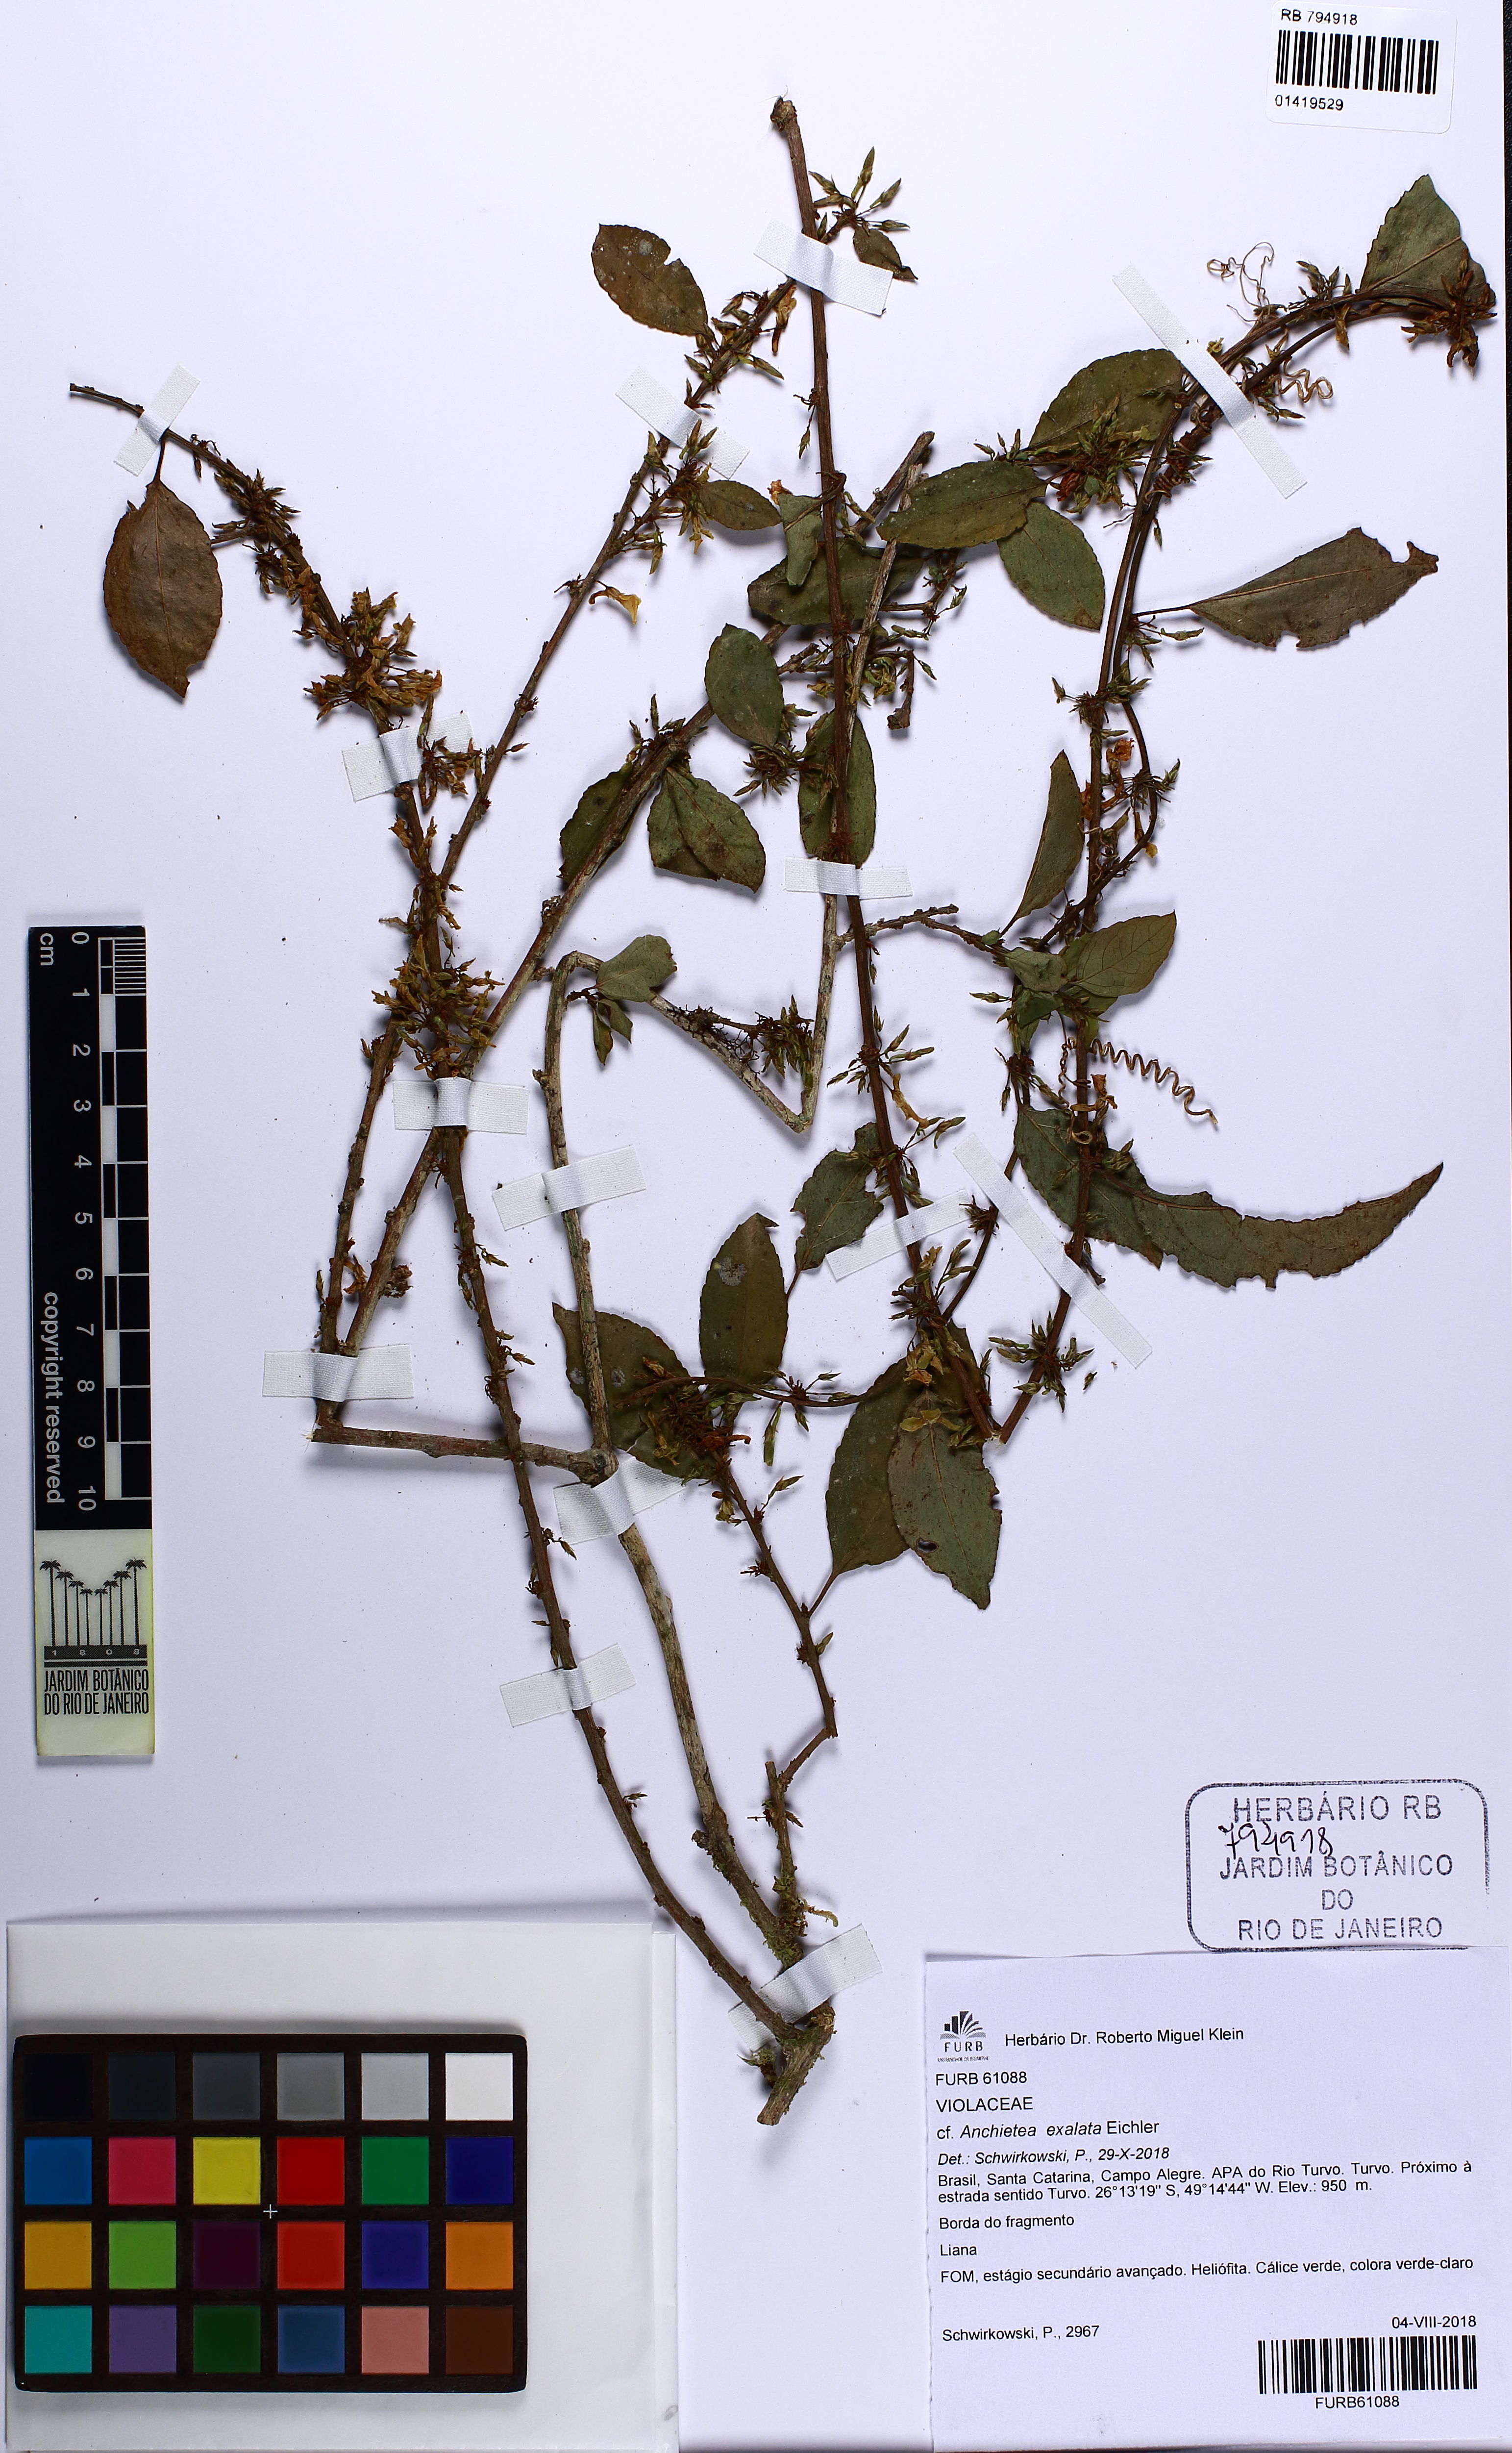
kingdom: Plantae
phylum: Tracheophyta
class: Magnoliopsida
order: Malpighiales
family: Violaceae
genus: Anchietea
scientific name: Anchietea exalata
